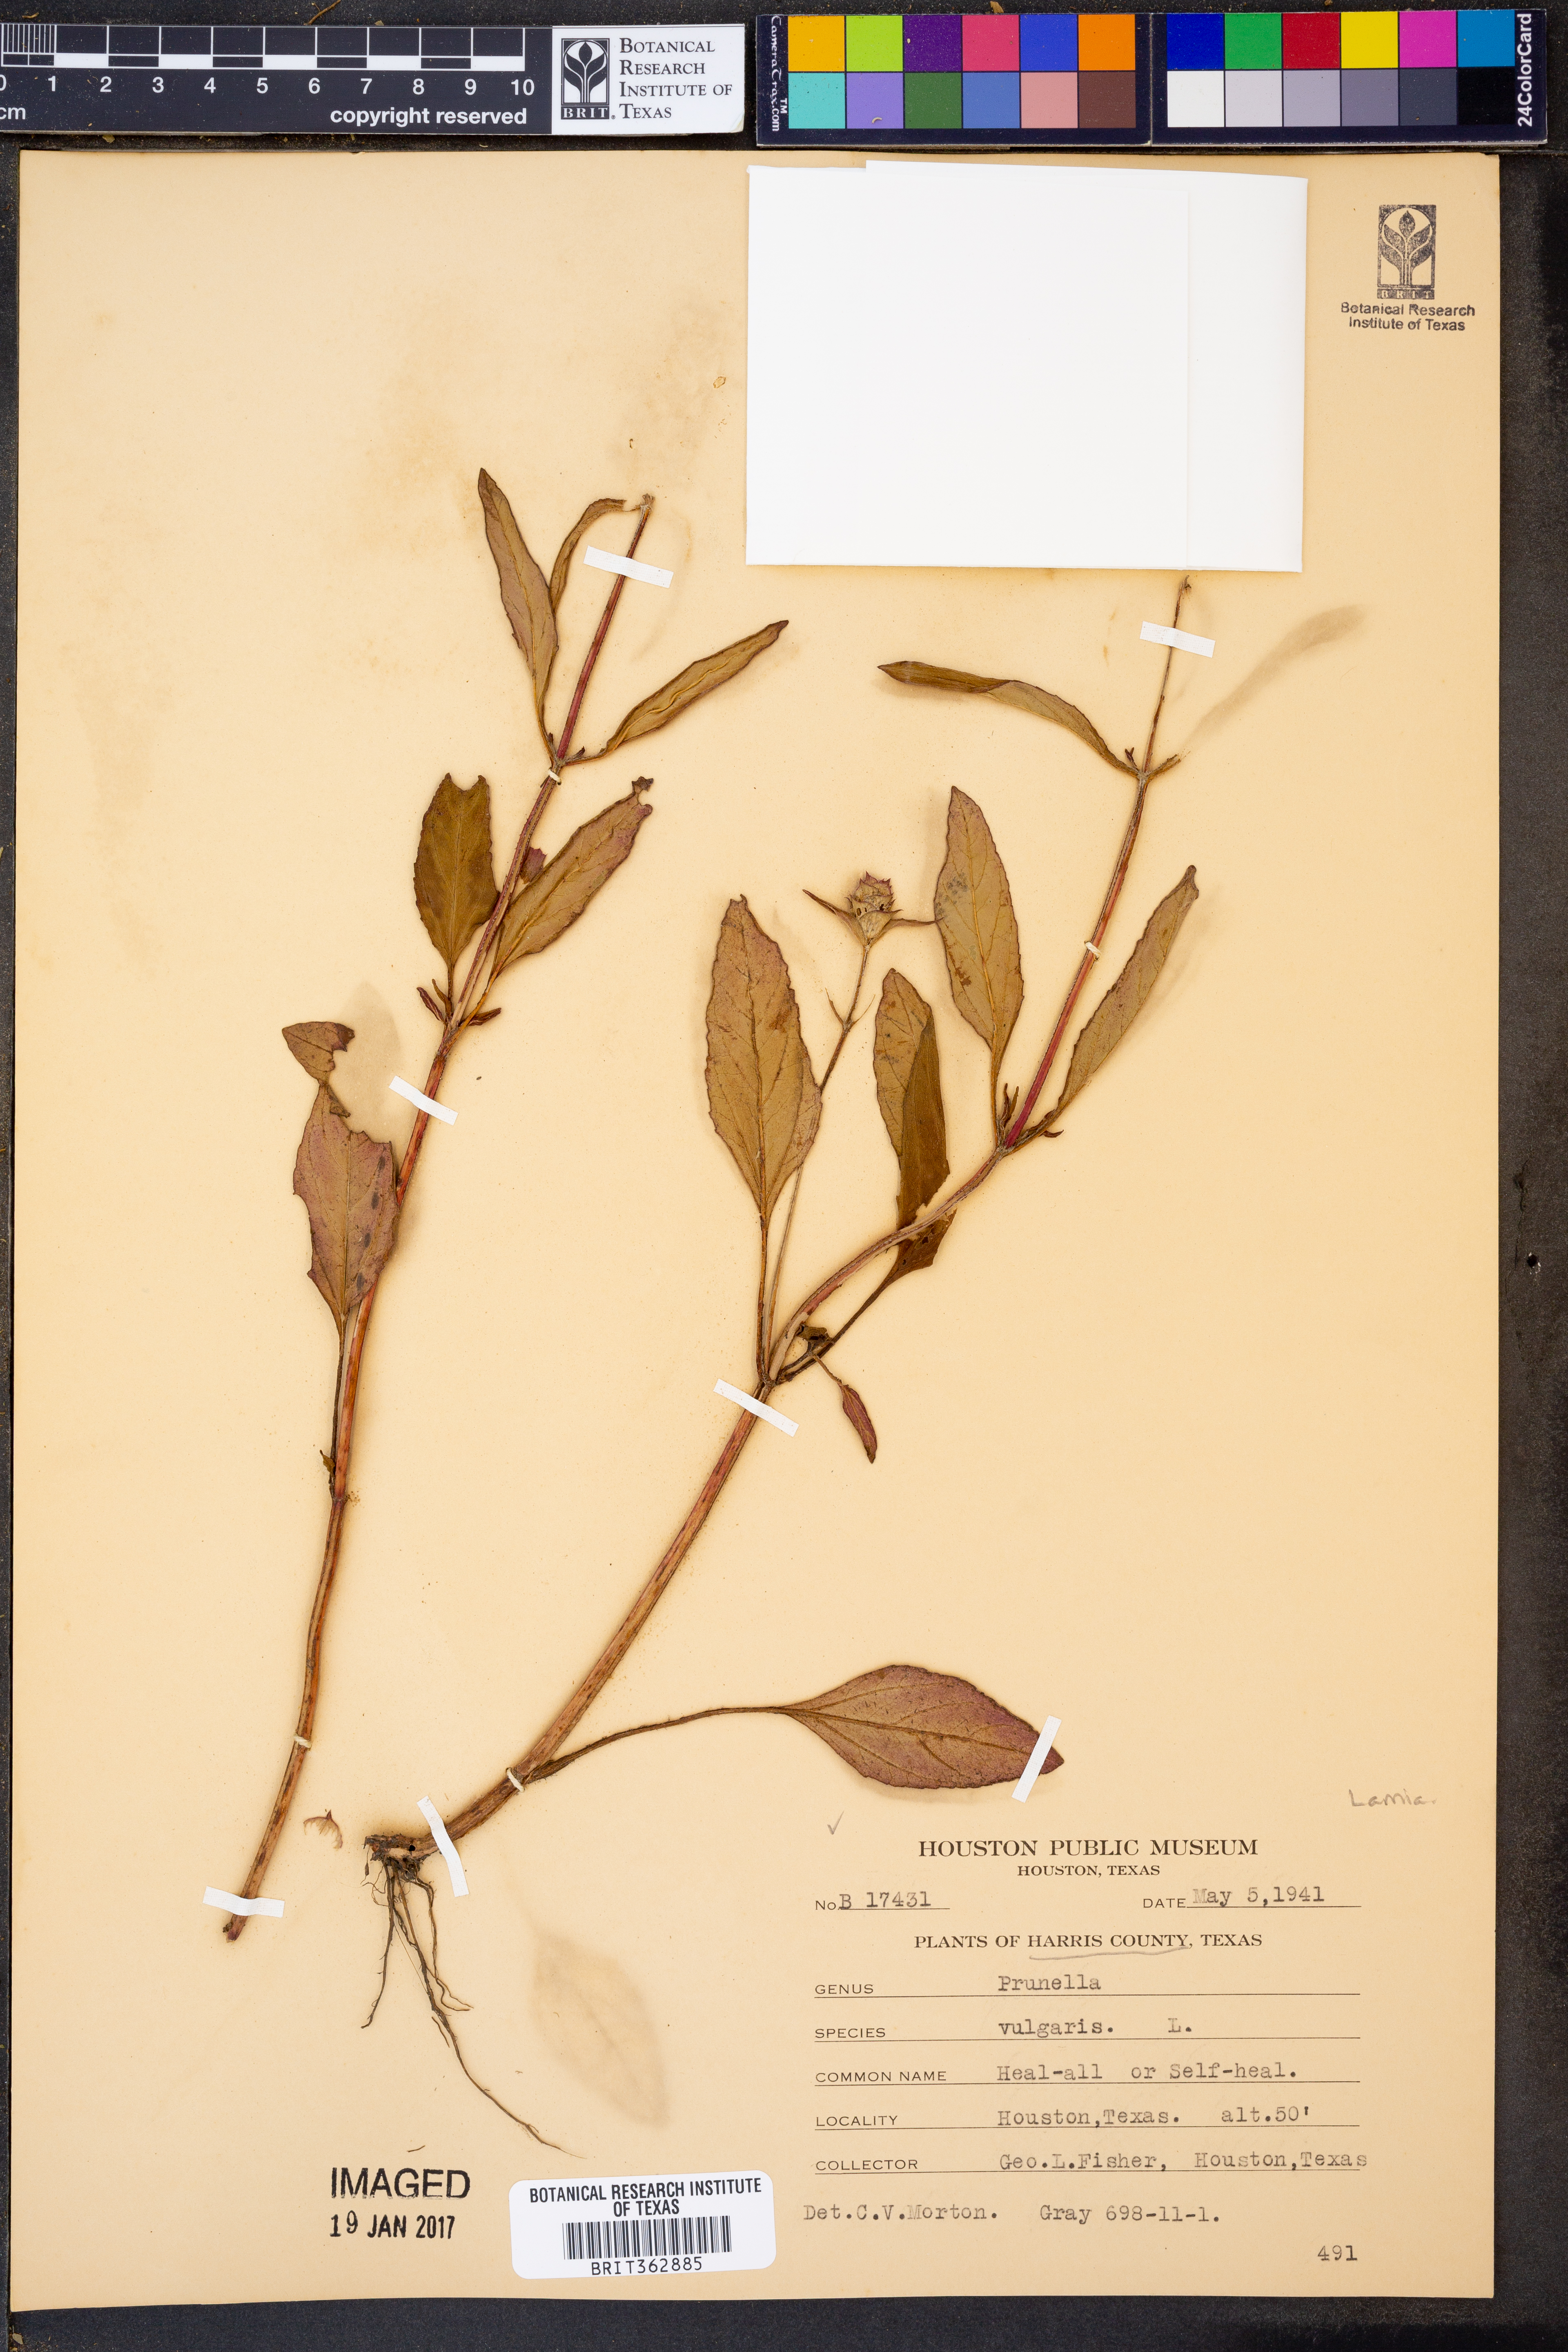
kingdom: Plantae
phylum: Tracheophyta
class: Magnoliopsida
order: Lamiales
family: Lamiaceae
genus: Prunella
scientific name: Prunella vulgaris
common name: Heal-all
